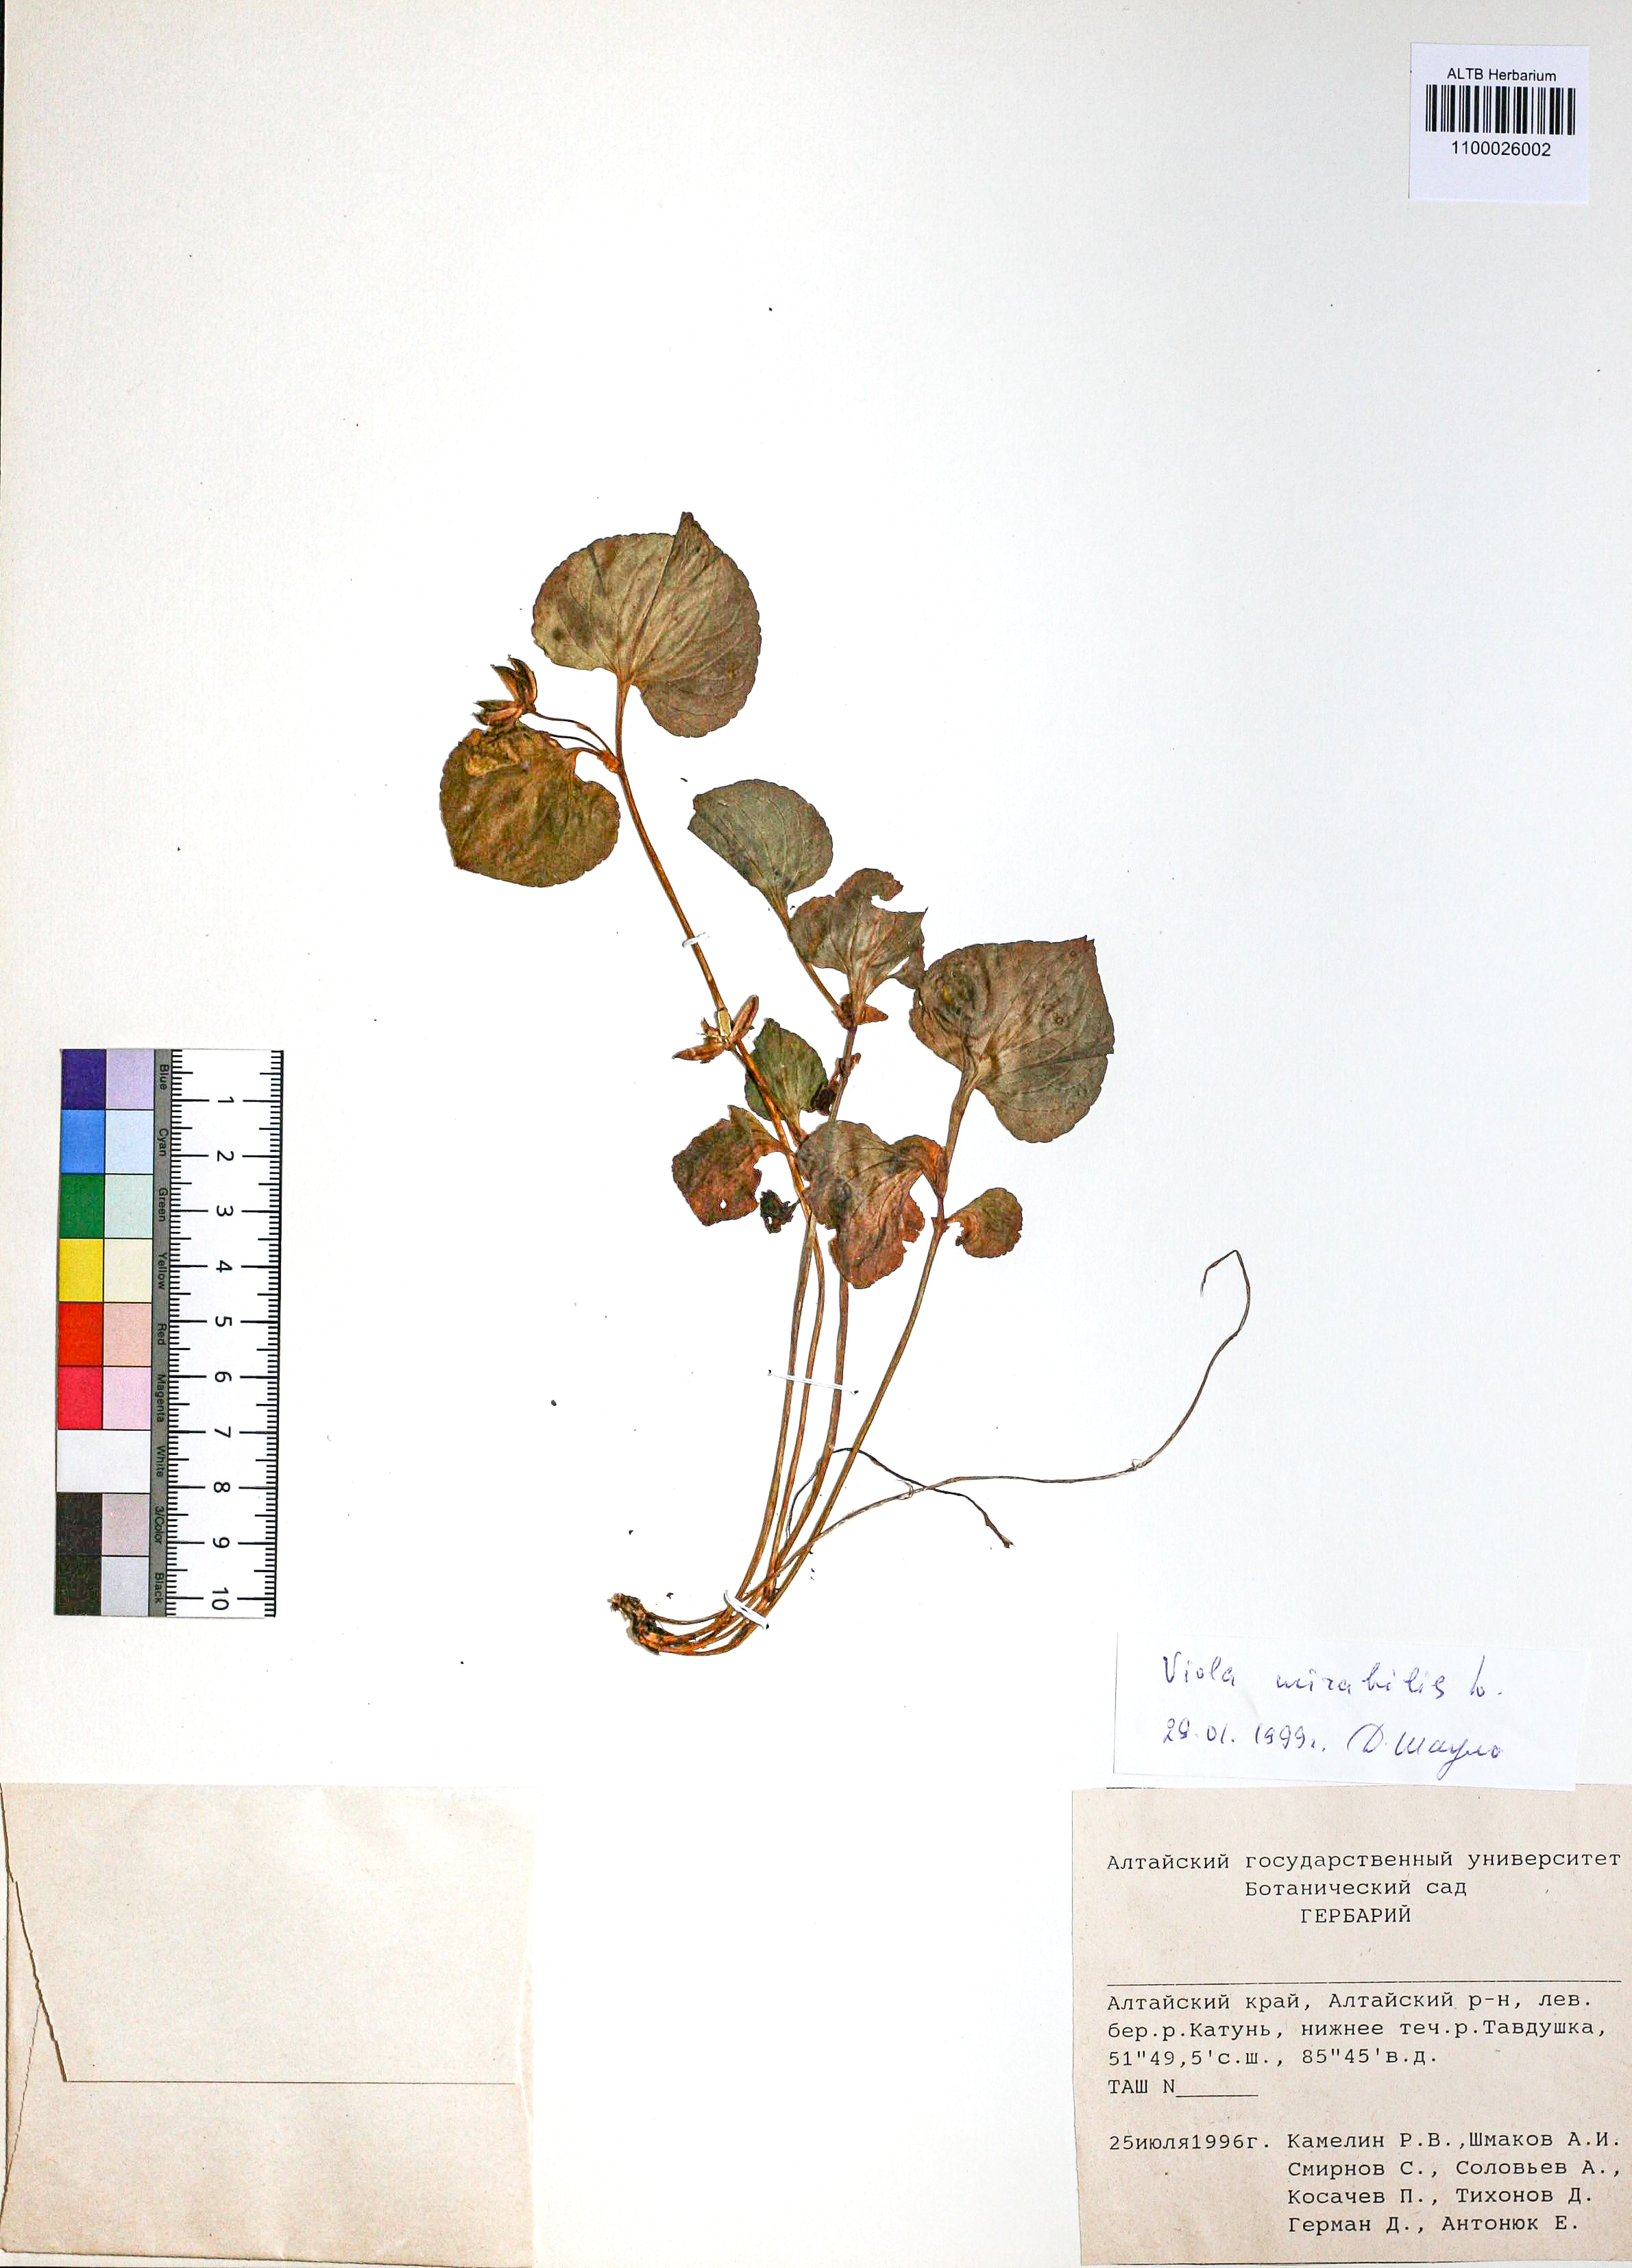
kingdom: Plantae
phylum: Tracheophyta
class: Magnoliopsida
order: Malpighiales
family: Violaceae
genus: Viola
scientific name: Viola mirabilis
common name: Wonder violet
